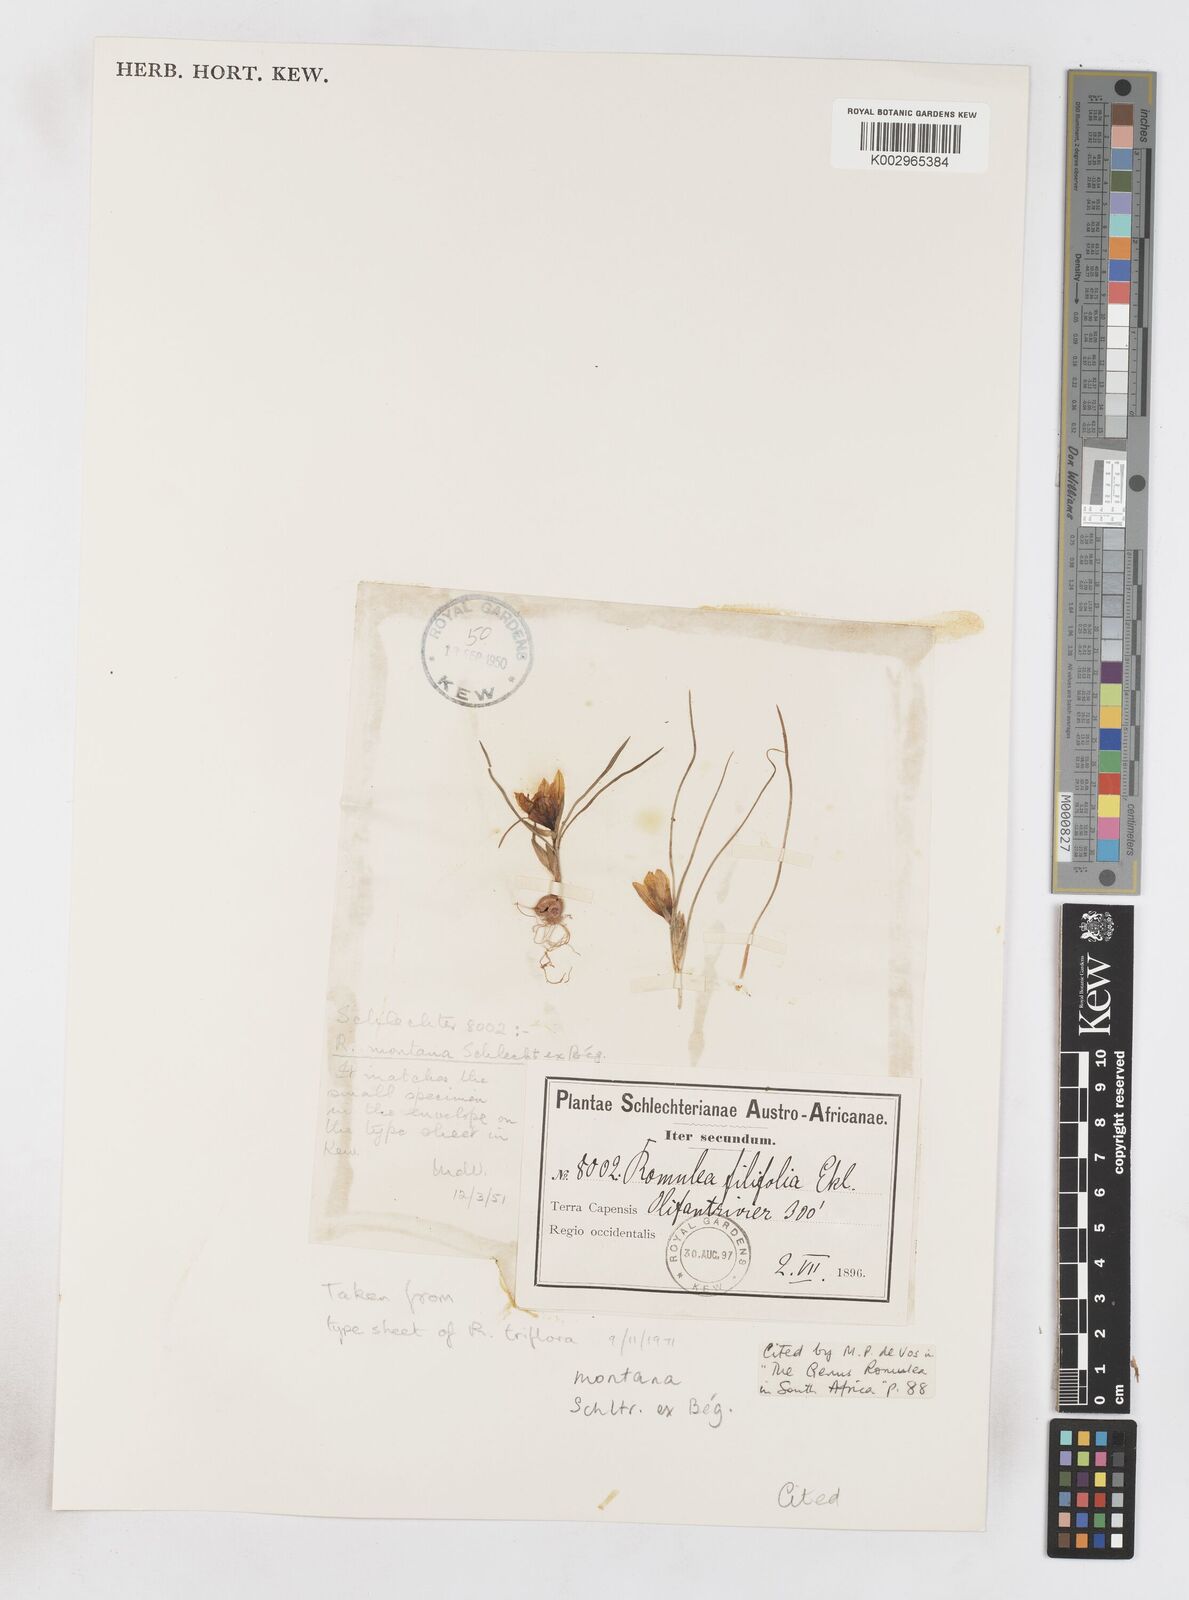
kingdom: Plantae
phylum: Tracheophyta
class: Liliopsida
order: Asparagales
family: Iridaceae
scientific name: Iridaceae
